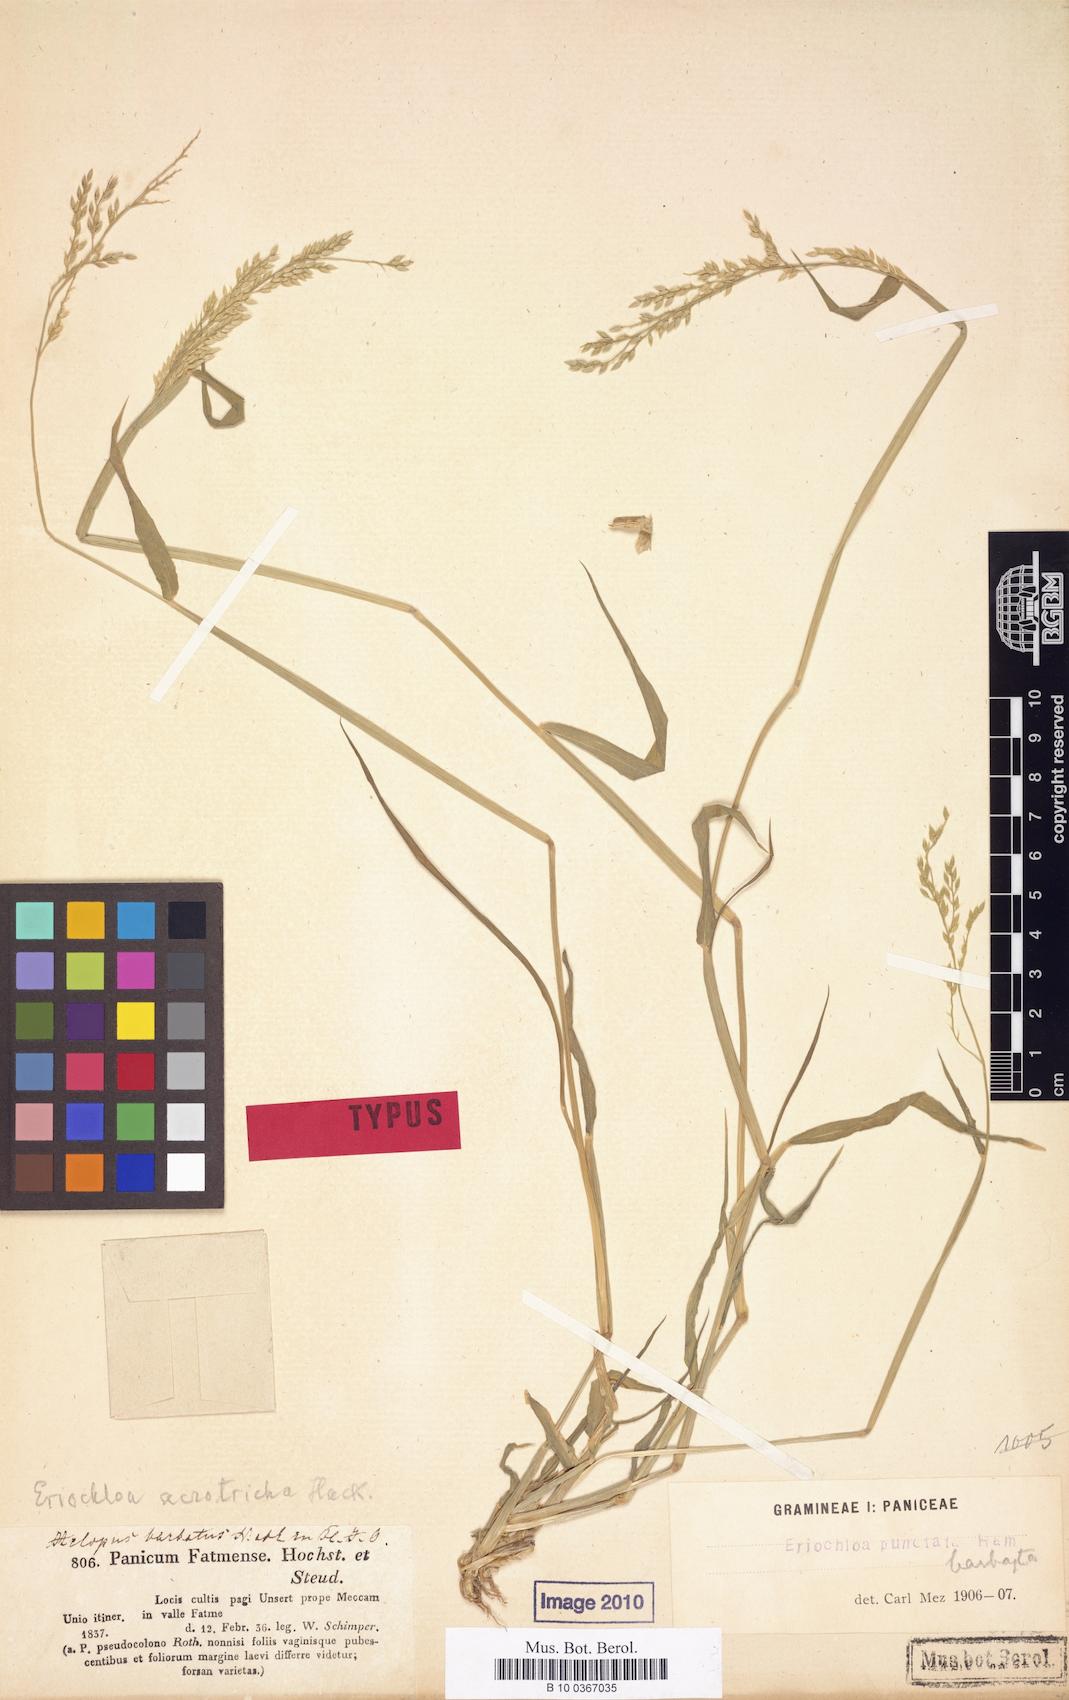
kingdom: Plantae
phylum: Tracheophyta
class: Liliopsida
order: Poales
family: Poaceae
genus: Eriochloa
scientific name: Eriochloa barbatus
